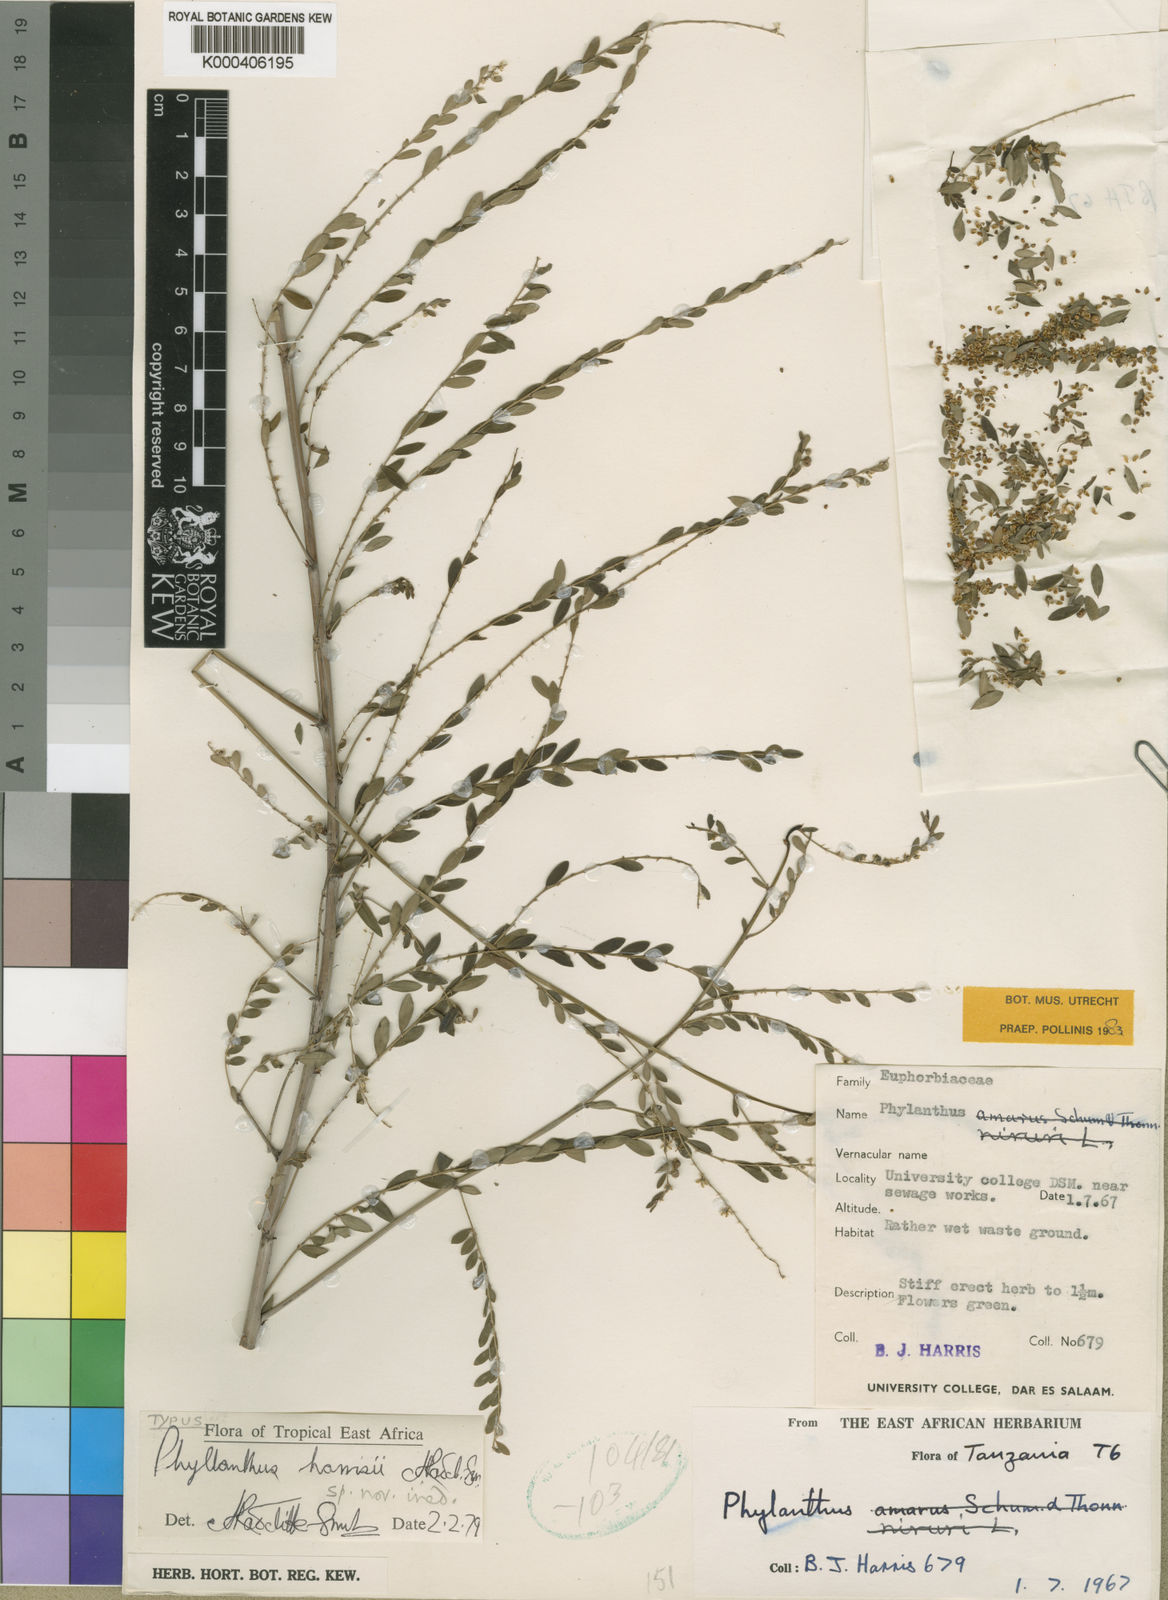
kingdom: Plantae
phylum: Tracheophyta
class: Magnoliopsida
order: Malpighiales
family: Phyllanthaceae
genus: Phyllanthus
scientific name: Phyllanthus harrisii
